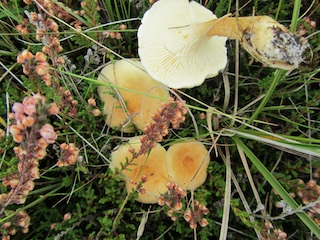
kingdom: Fungi
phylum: Basidiomycota
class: Agaricomycetes
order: Boletales
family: Hygrophoropsidaceae
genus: Hygrophoropsis
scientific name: Hygrophoropsis pallida
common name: bleg orangekantarel
